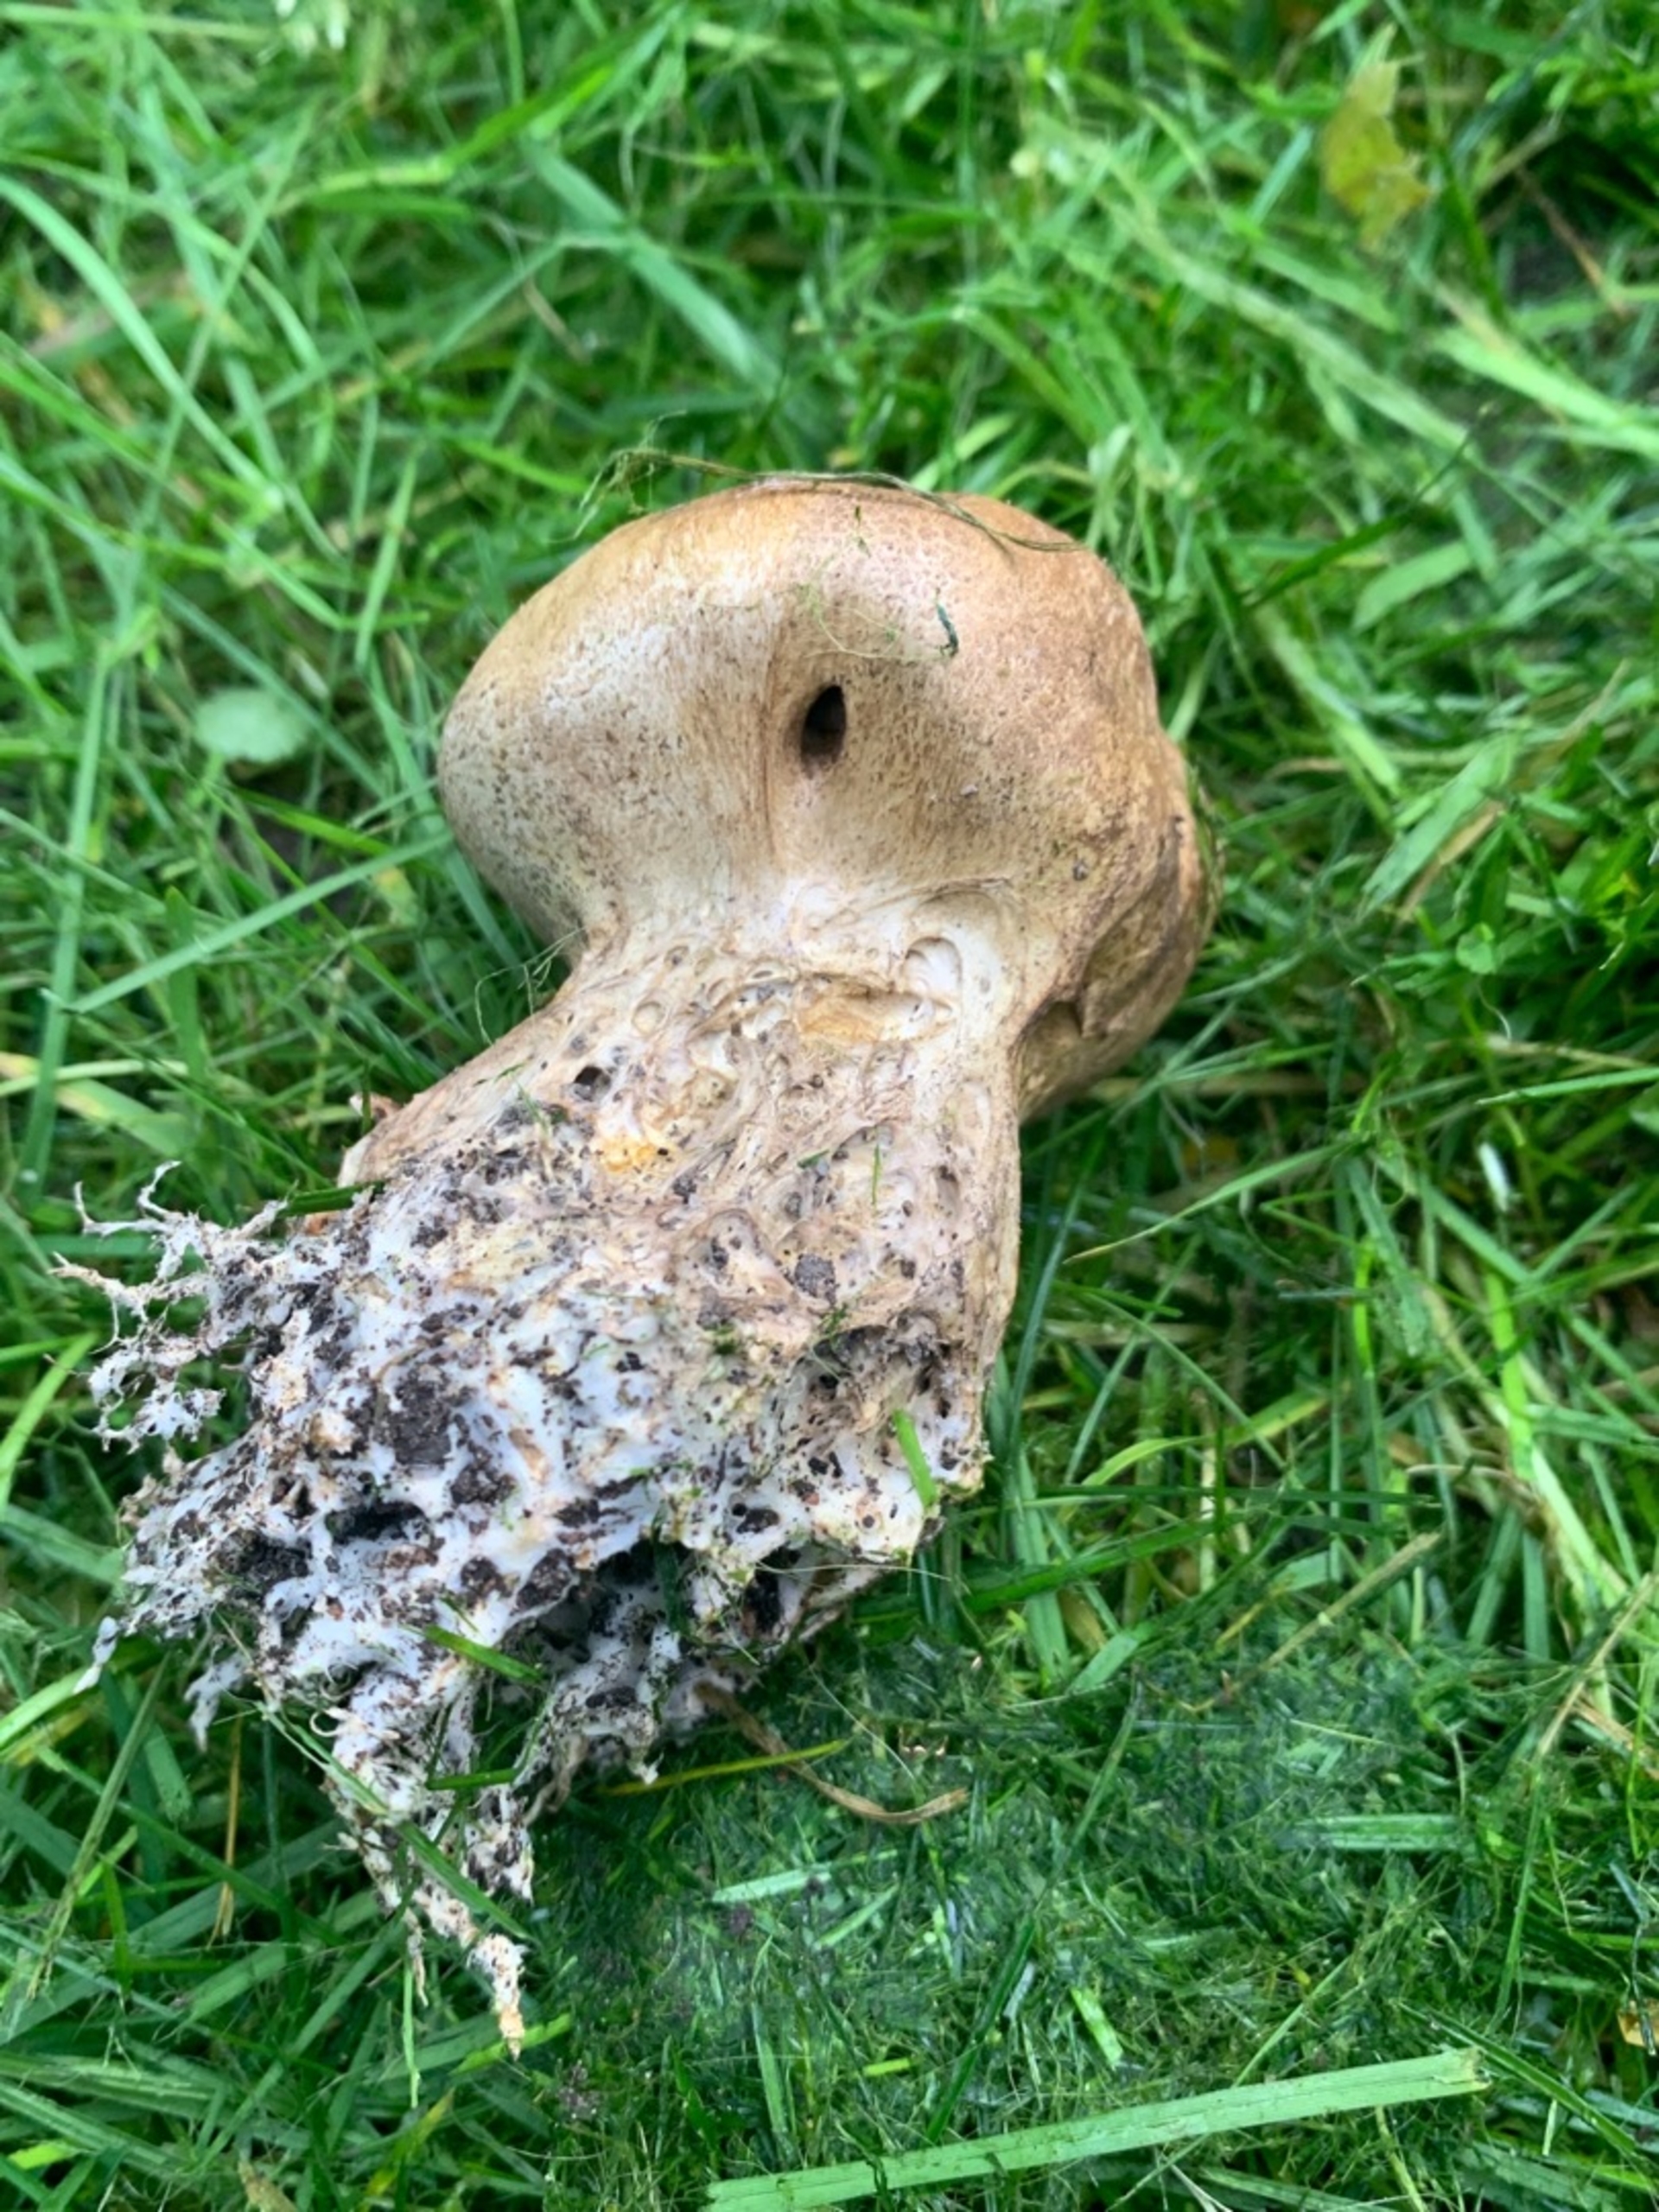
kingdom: Fungi
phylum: Basidiomycota
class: Agaricomycetes
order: Boletales
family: Sclerodermataceae
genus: Scleroderma
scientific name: Scleroderma verrucosum
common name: Stilket bruskbold
